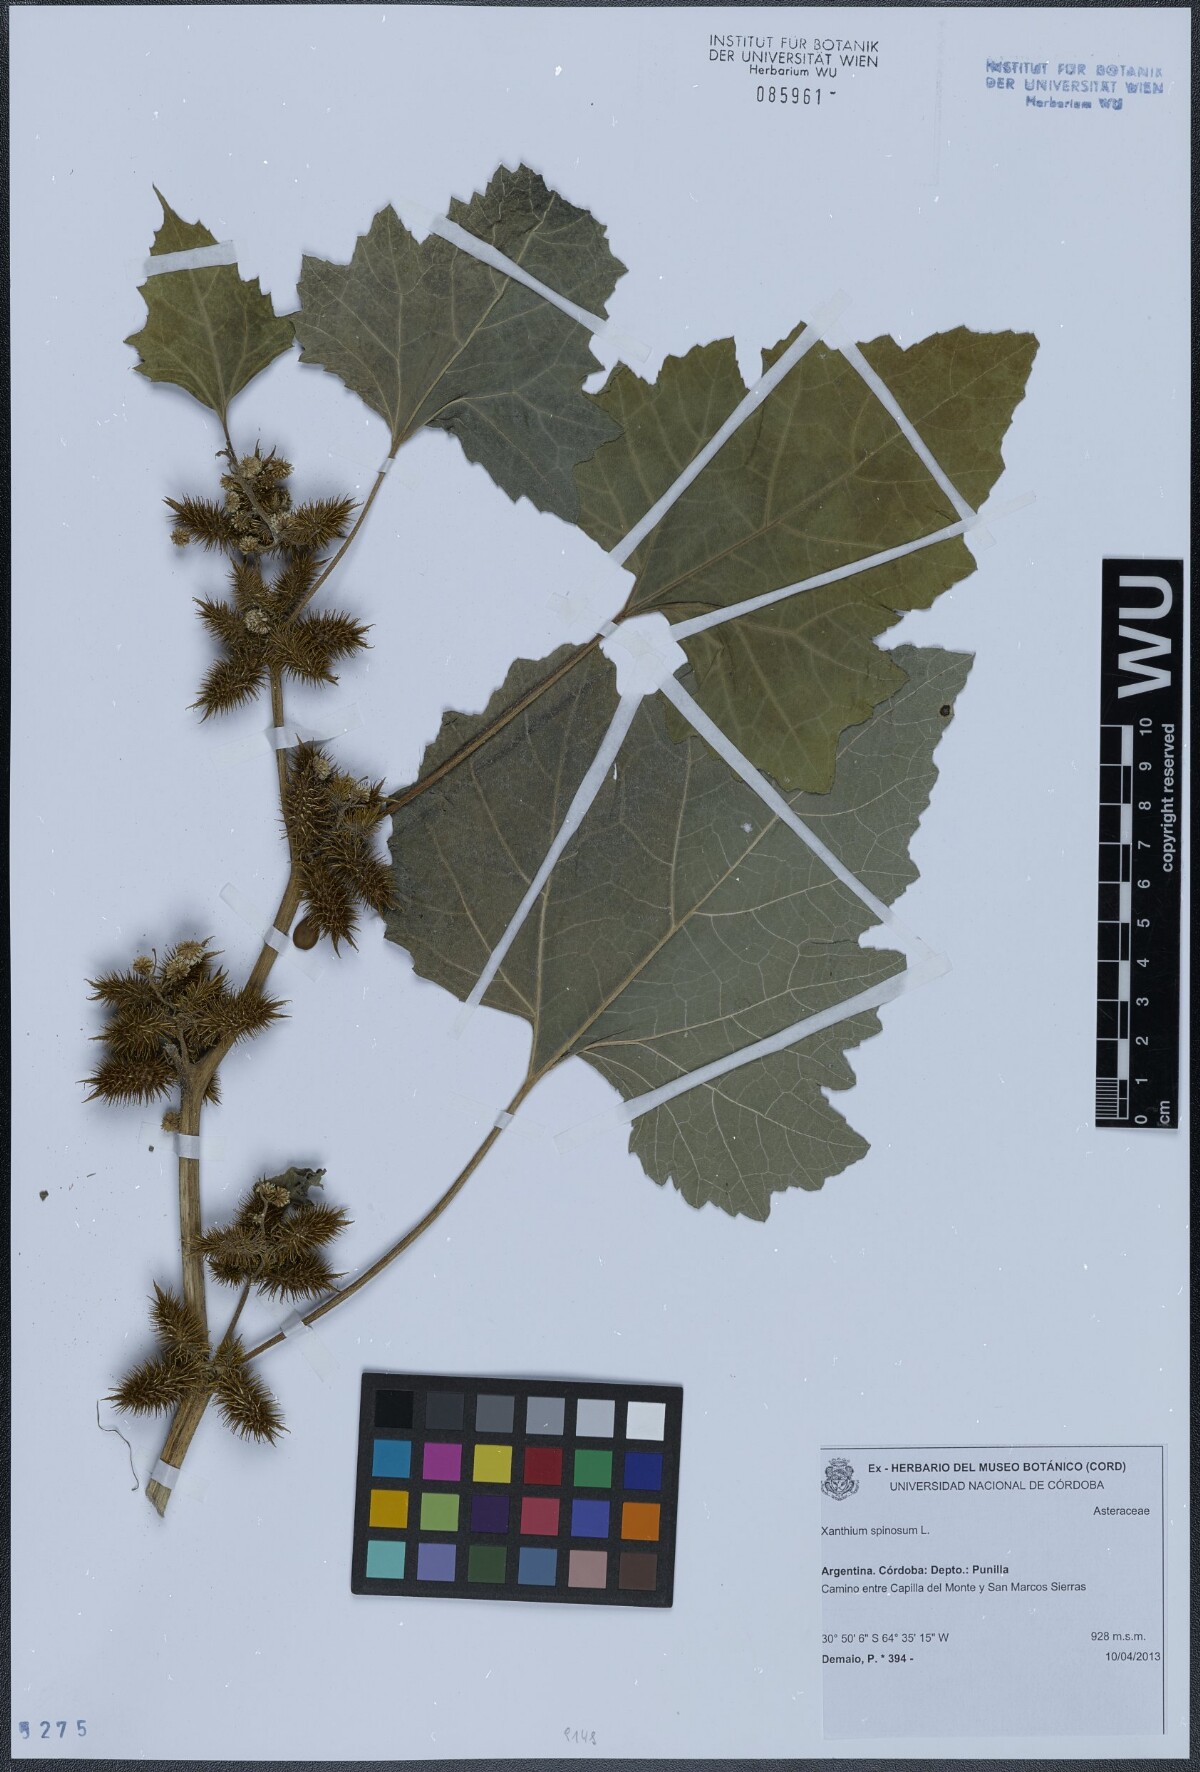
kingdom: Plantae
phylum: Tracheophyta
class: Magnoliopsida
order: Asterales
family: Asteraceae
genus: Xanthium
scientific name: Xanthium
